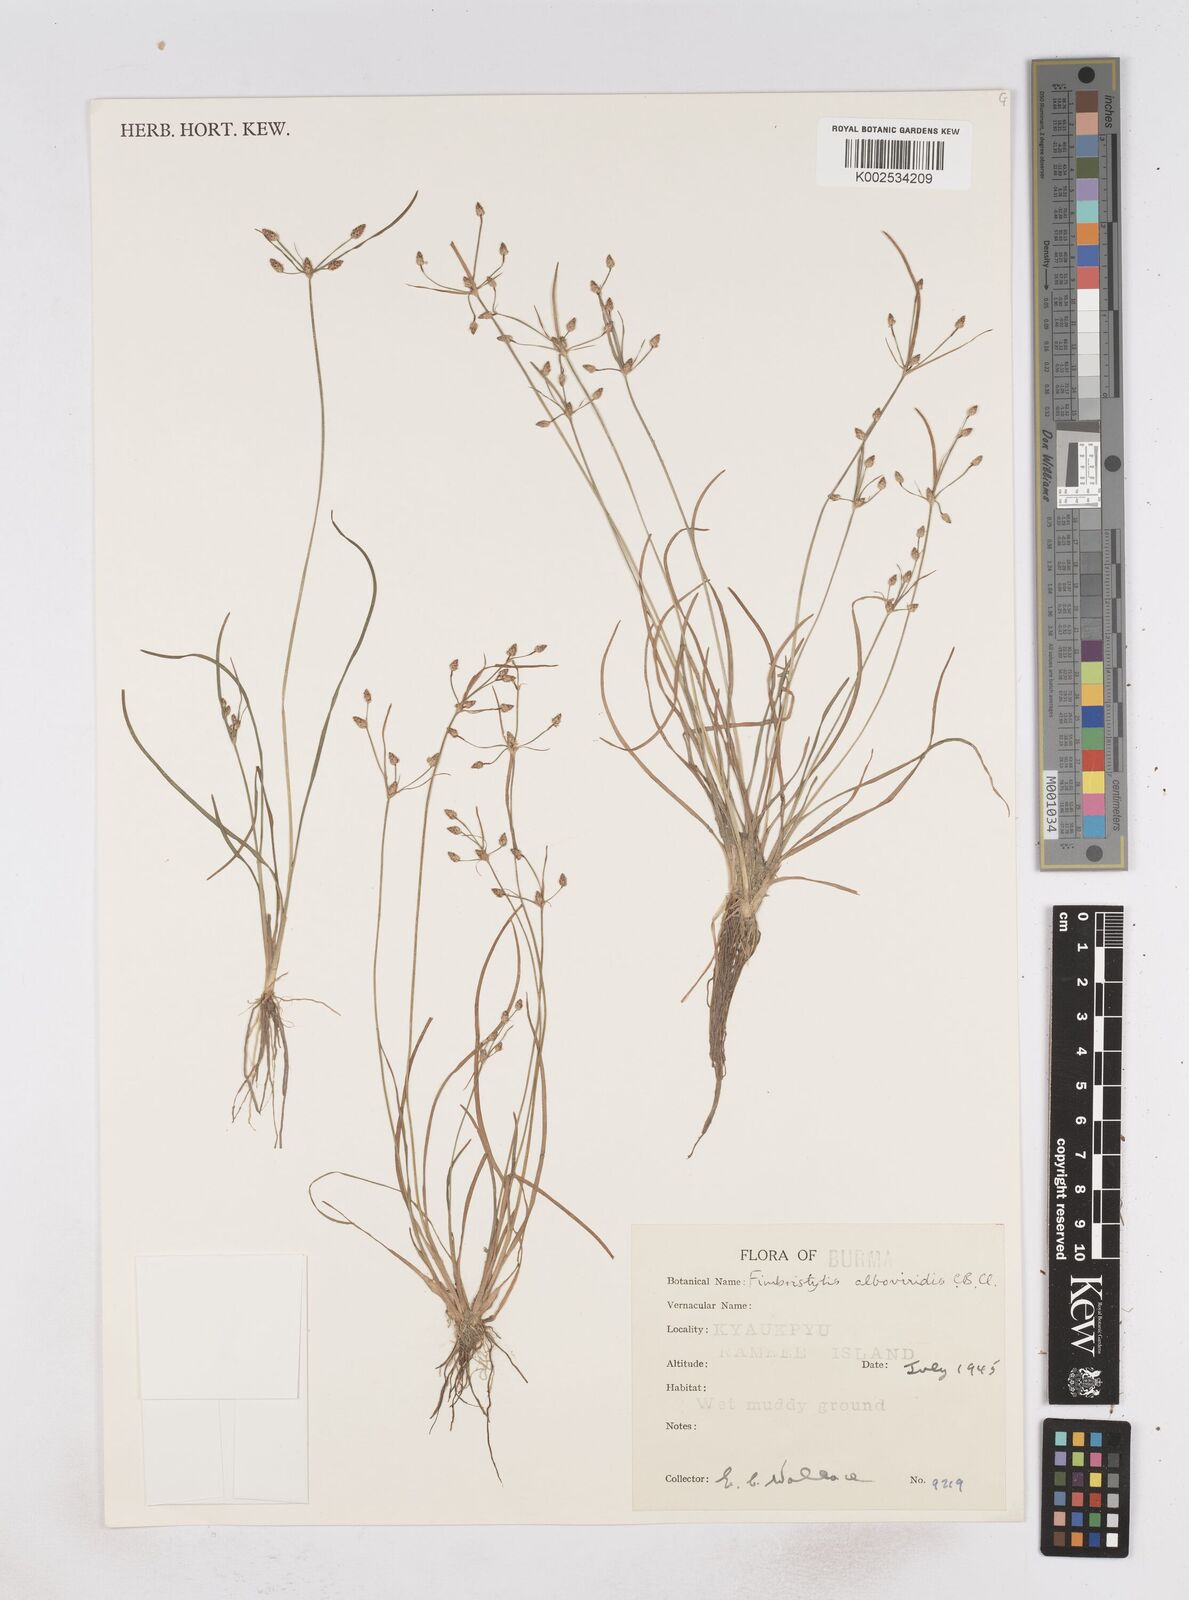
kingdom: Plantae
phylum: Tracheophyta
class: Liliopsida
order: Poales
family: Cyperaceae
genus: Fimbristylis
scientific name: Fimbristylis alboviridis
